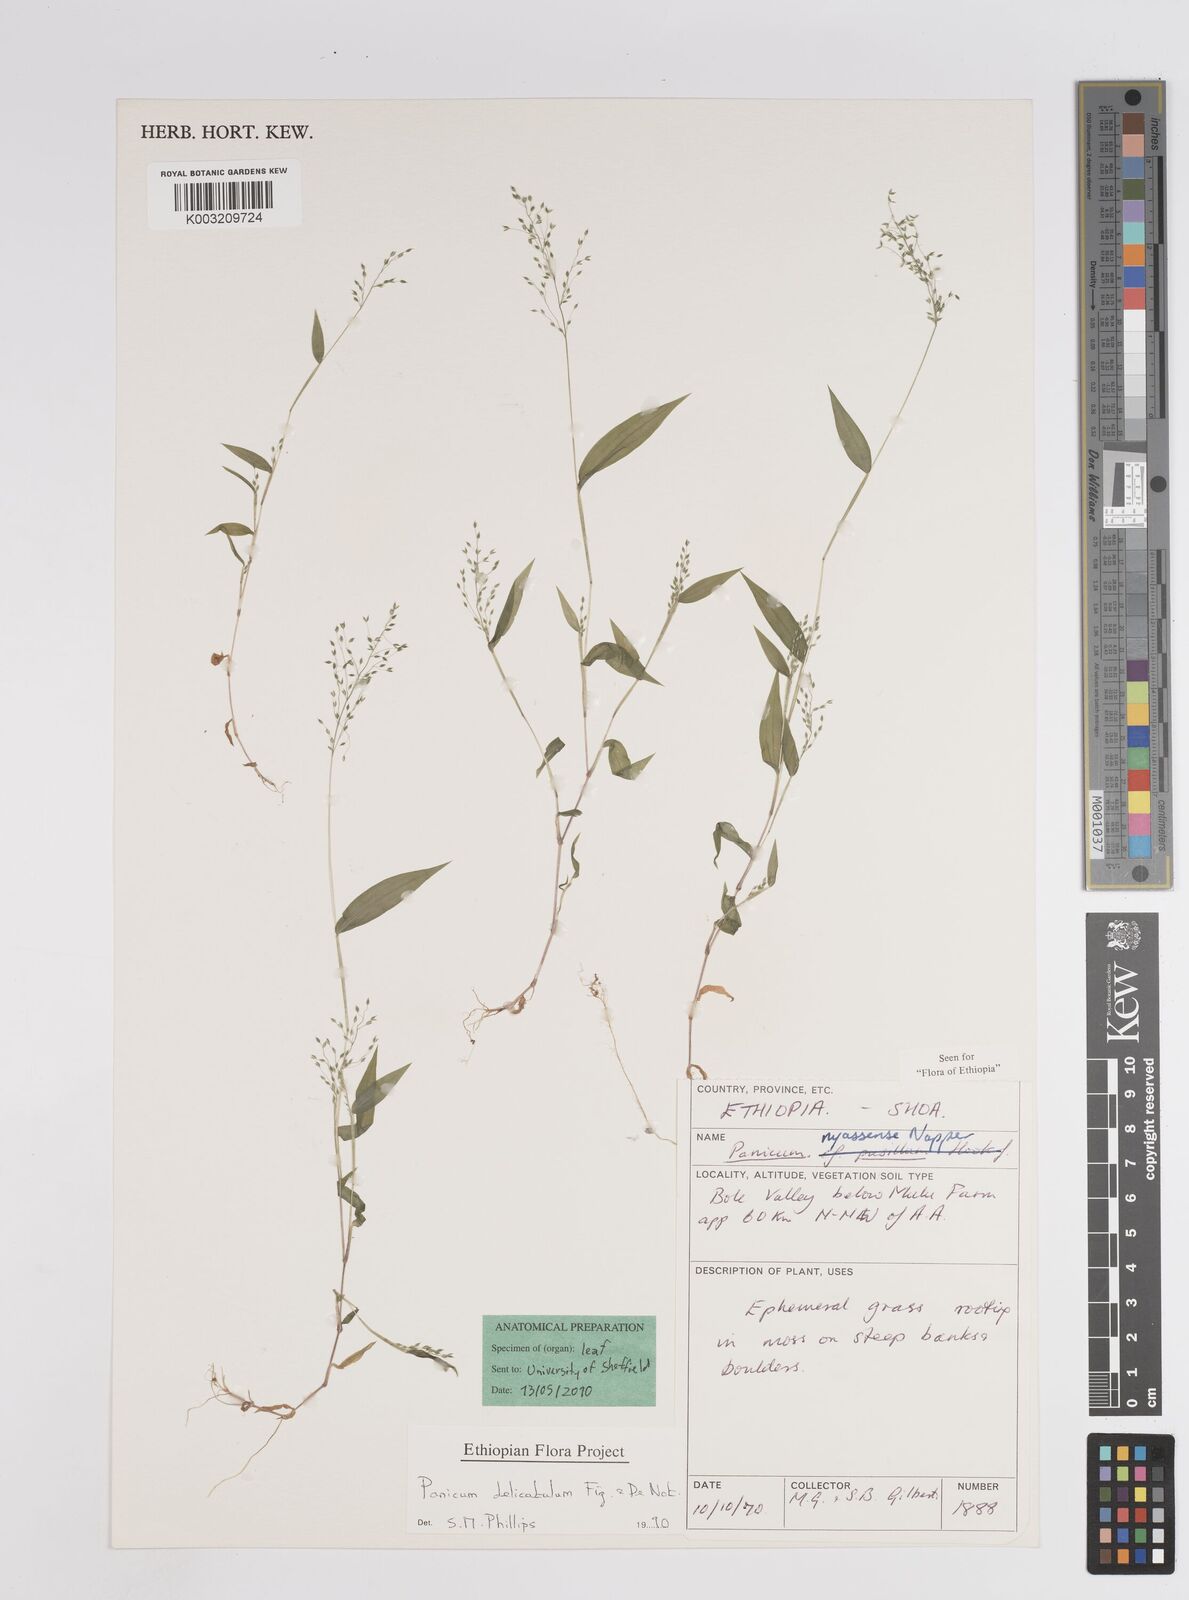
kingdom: Plantae
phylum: Tracheophyta
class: Liliopsida
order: Poales
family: Poaceae
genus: Panicum
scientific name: Panicum delicatulum
